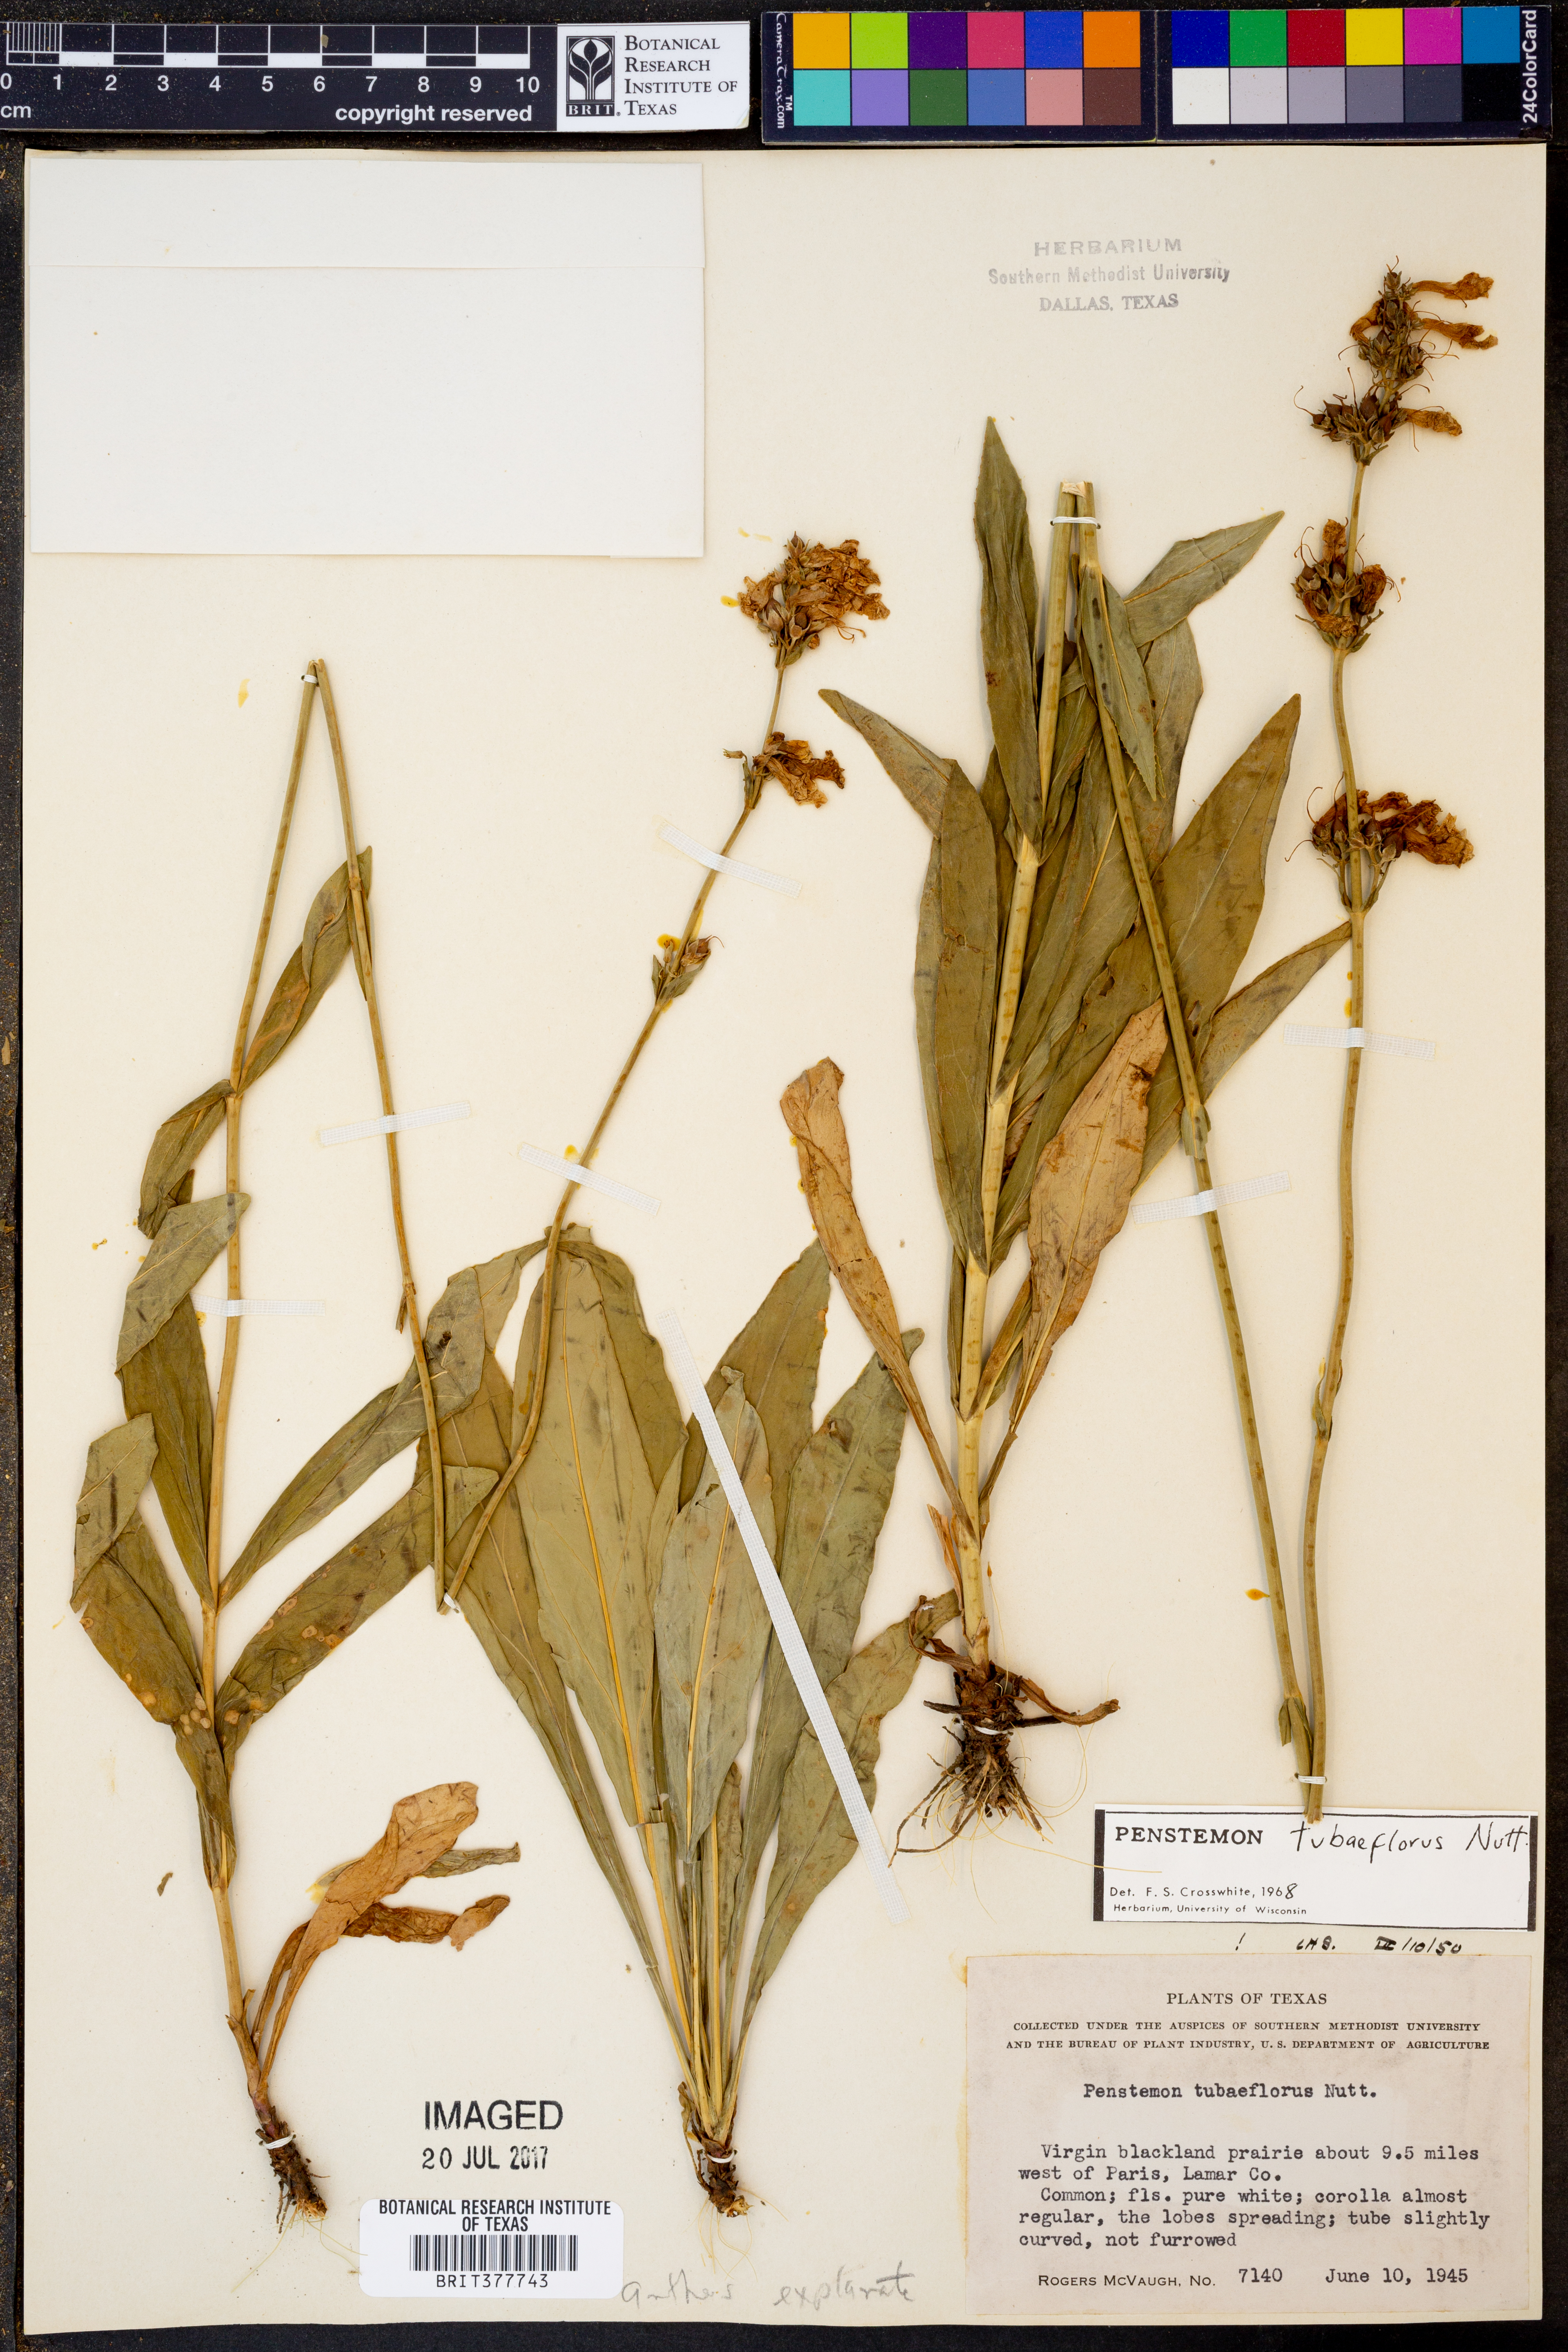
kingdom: Plantae
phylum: Tracheophyta
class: Magnoliopsida
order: Lamiales
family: Plantaginaceae
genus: Penstemon
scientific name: Penstemon tubaeflorus
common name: White wand beardtongue
